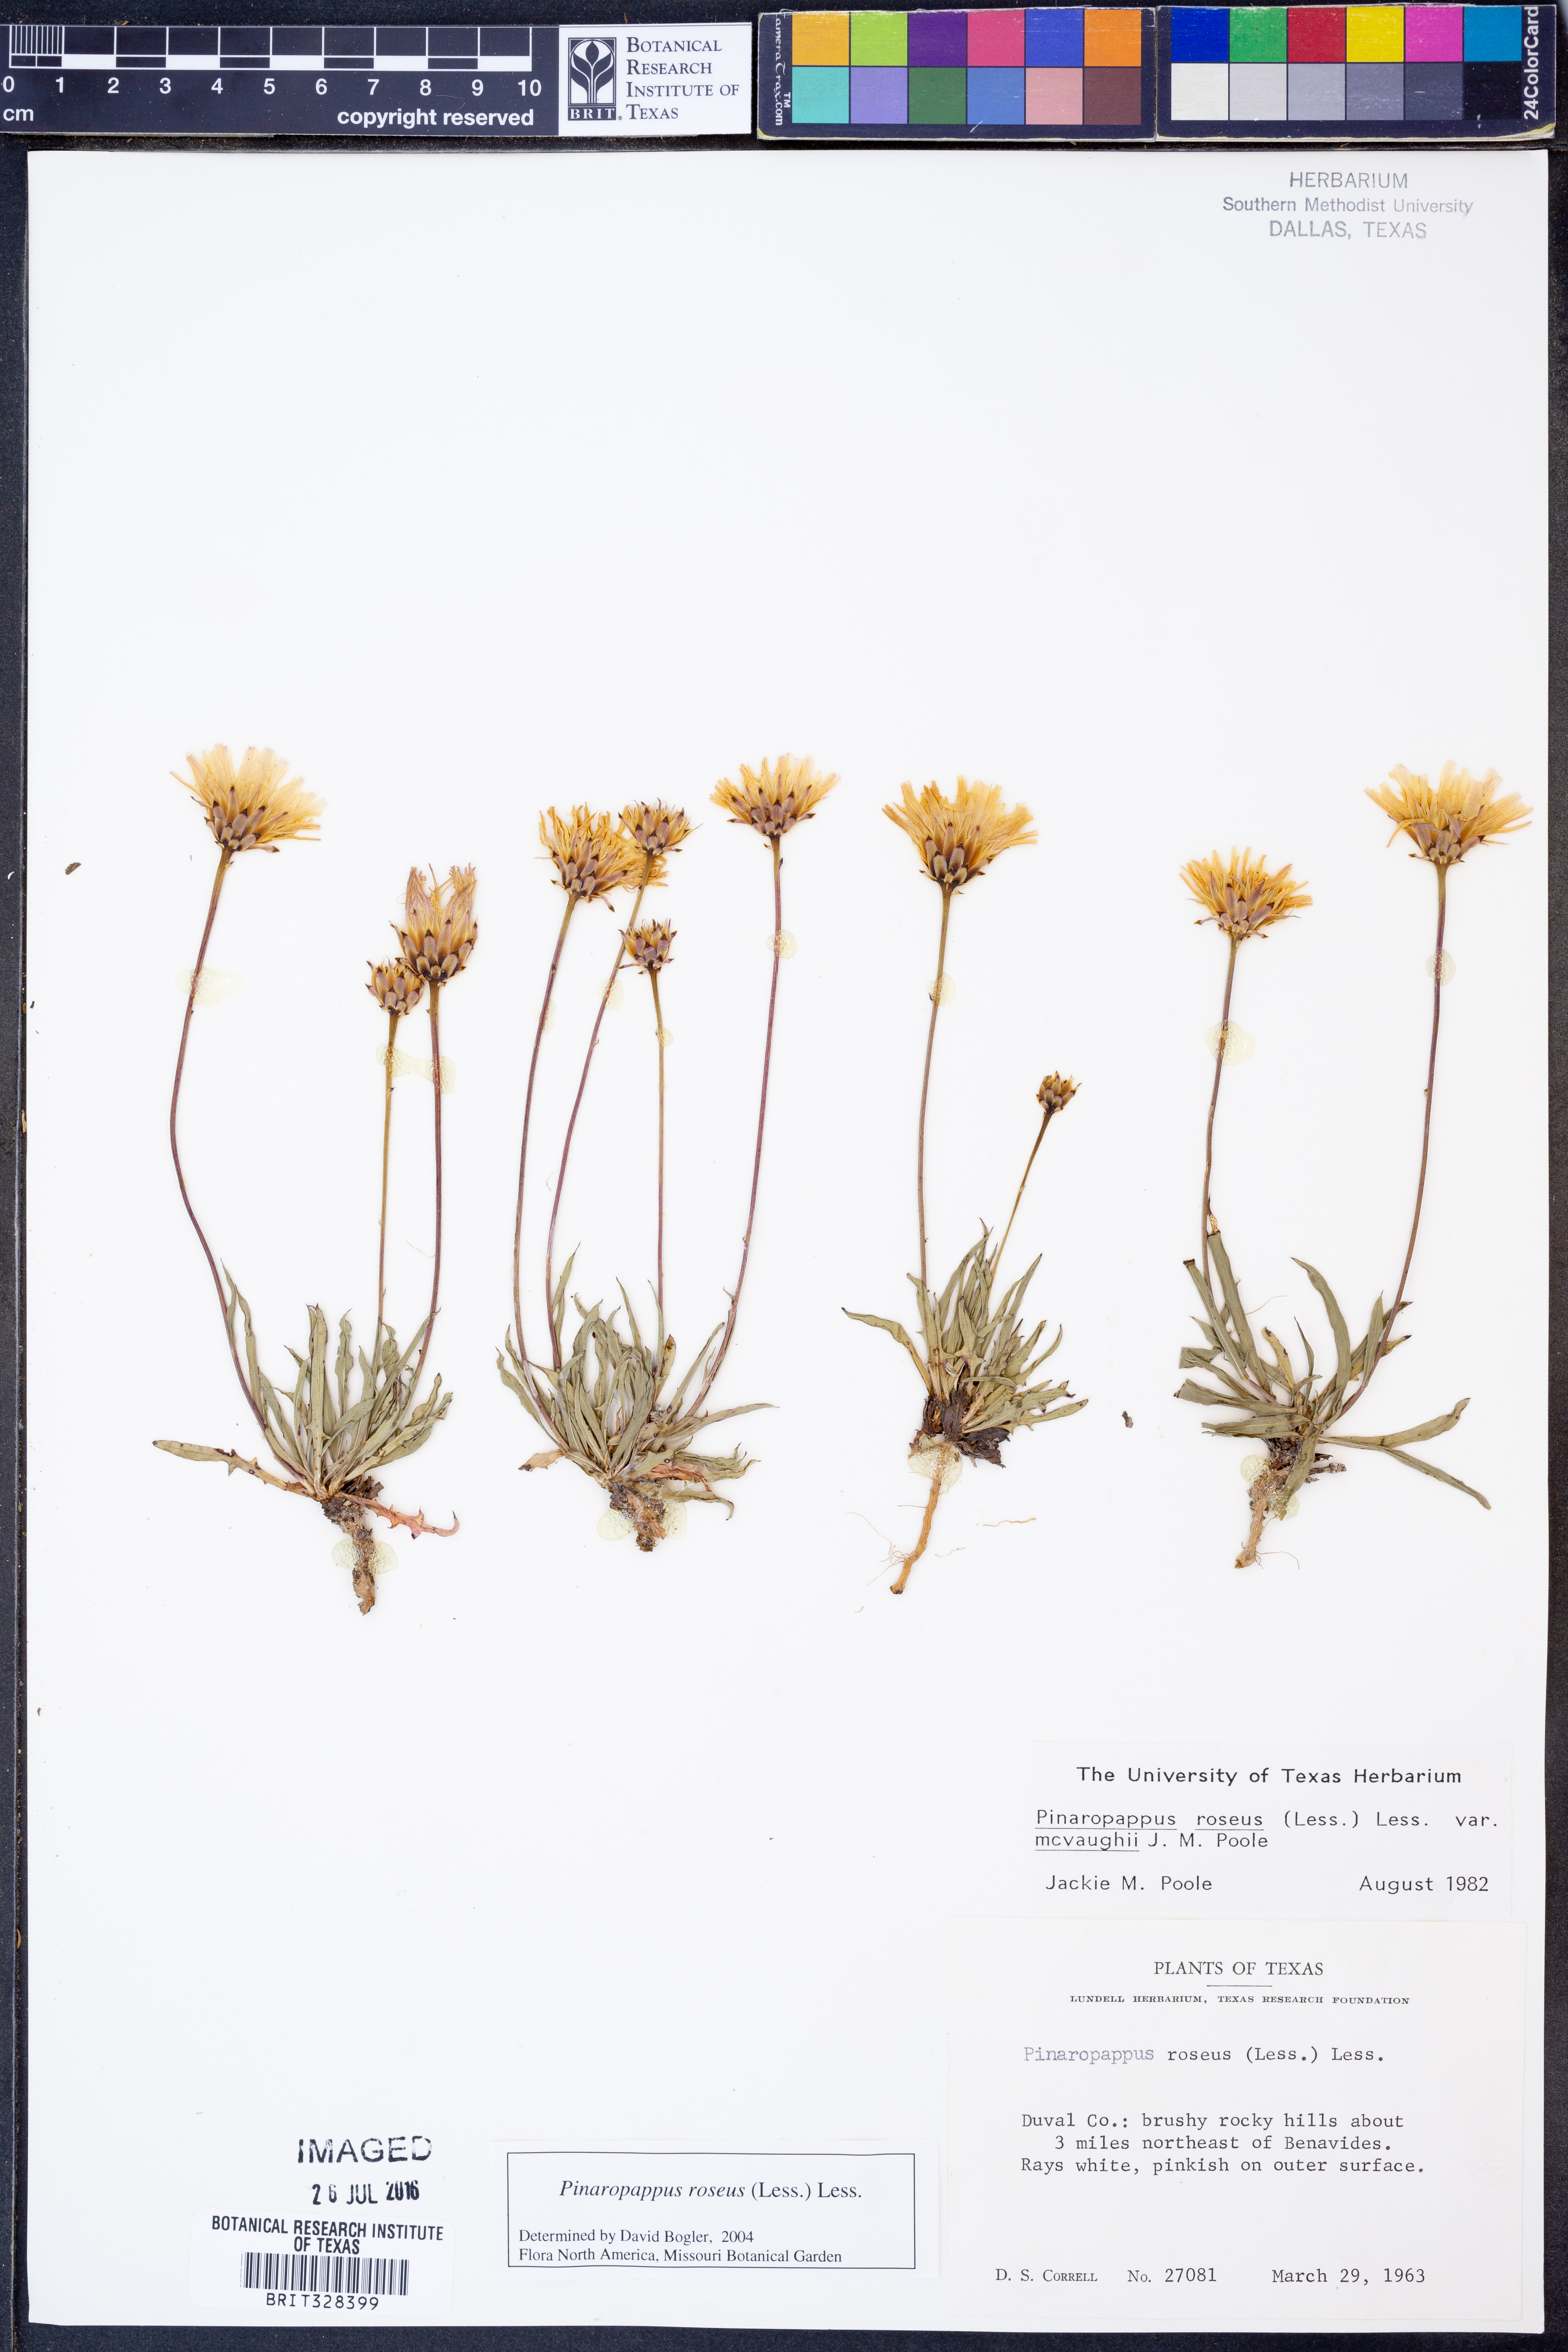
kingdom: Plantae
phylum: Tracheophyta
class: Magnoliopsida
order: Asterales
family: Asteraceae
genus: Pinaropappus
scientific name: Pinaropappus roseus
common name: Rock-lettuce
